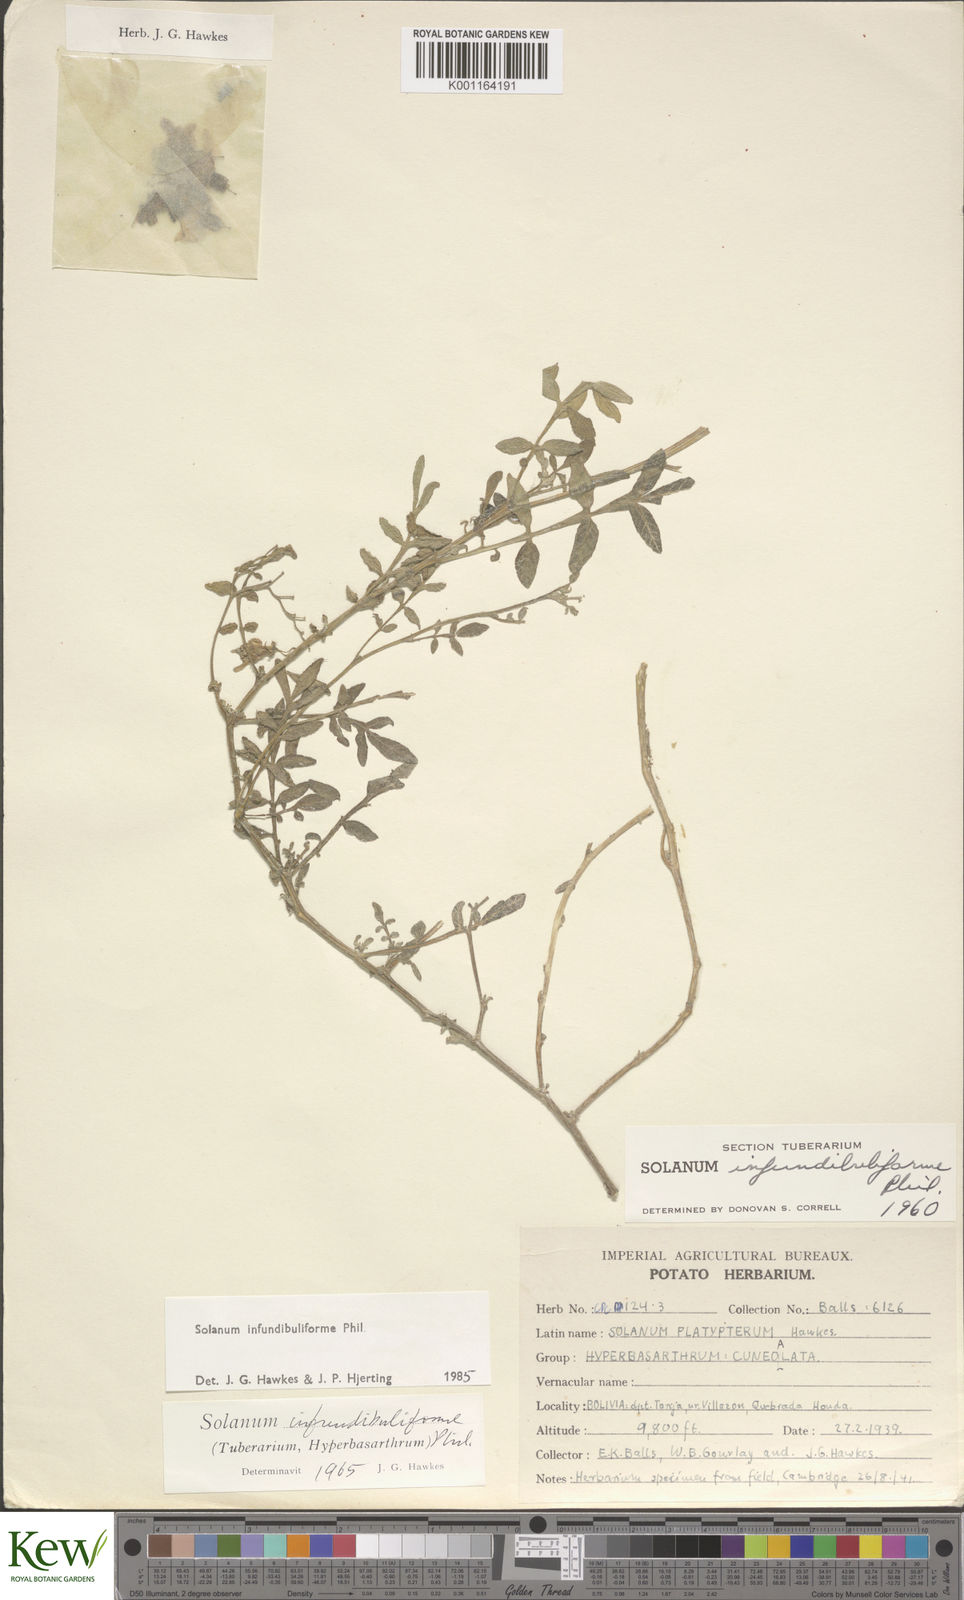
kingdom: Plantae
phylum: Tracheophyta
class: Magnoliopsida
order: Solanales
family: Solanaceae
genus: Solanum
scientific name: Solanum infundibuliforme
